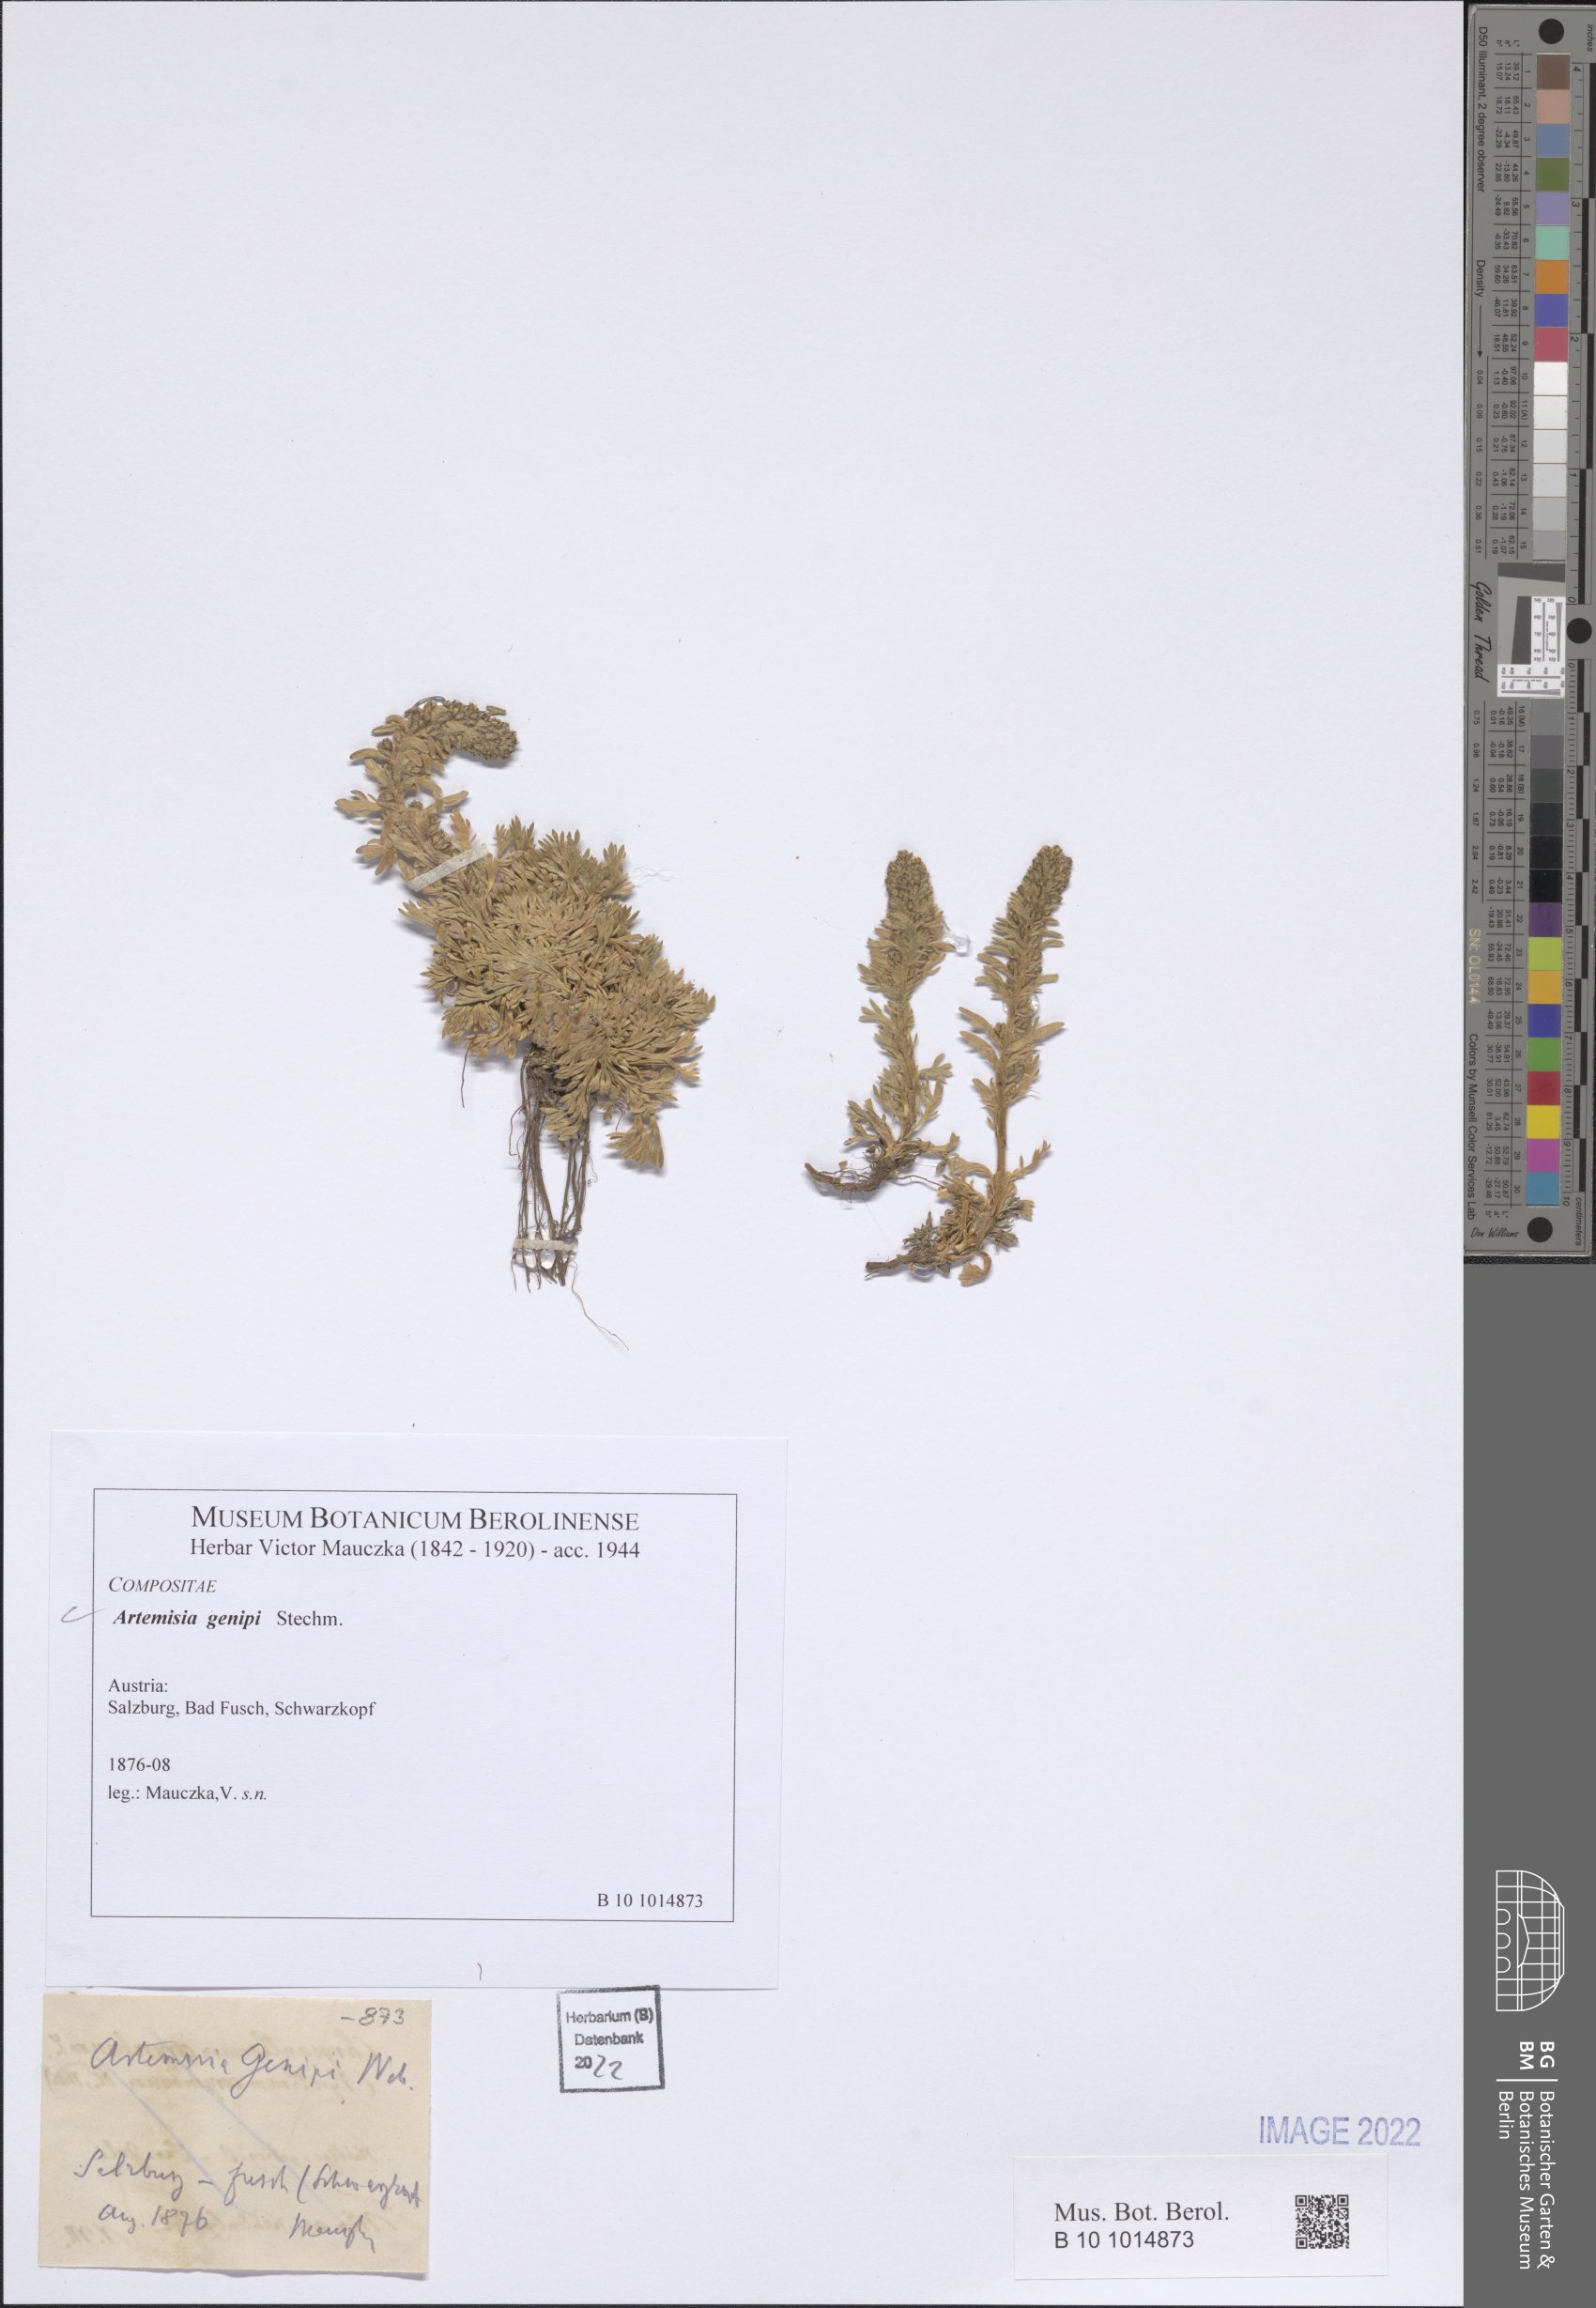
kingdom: Plantae
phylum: Tracheophyta
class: Magnoliopsida
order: Asterales
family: Asteraceae
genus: Artemisia
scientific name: Artemisia genipi
